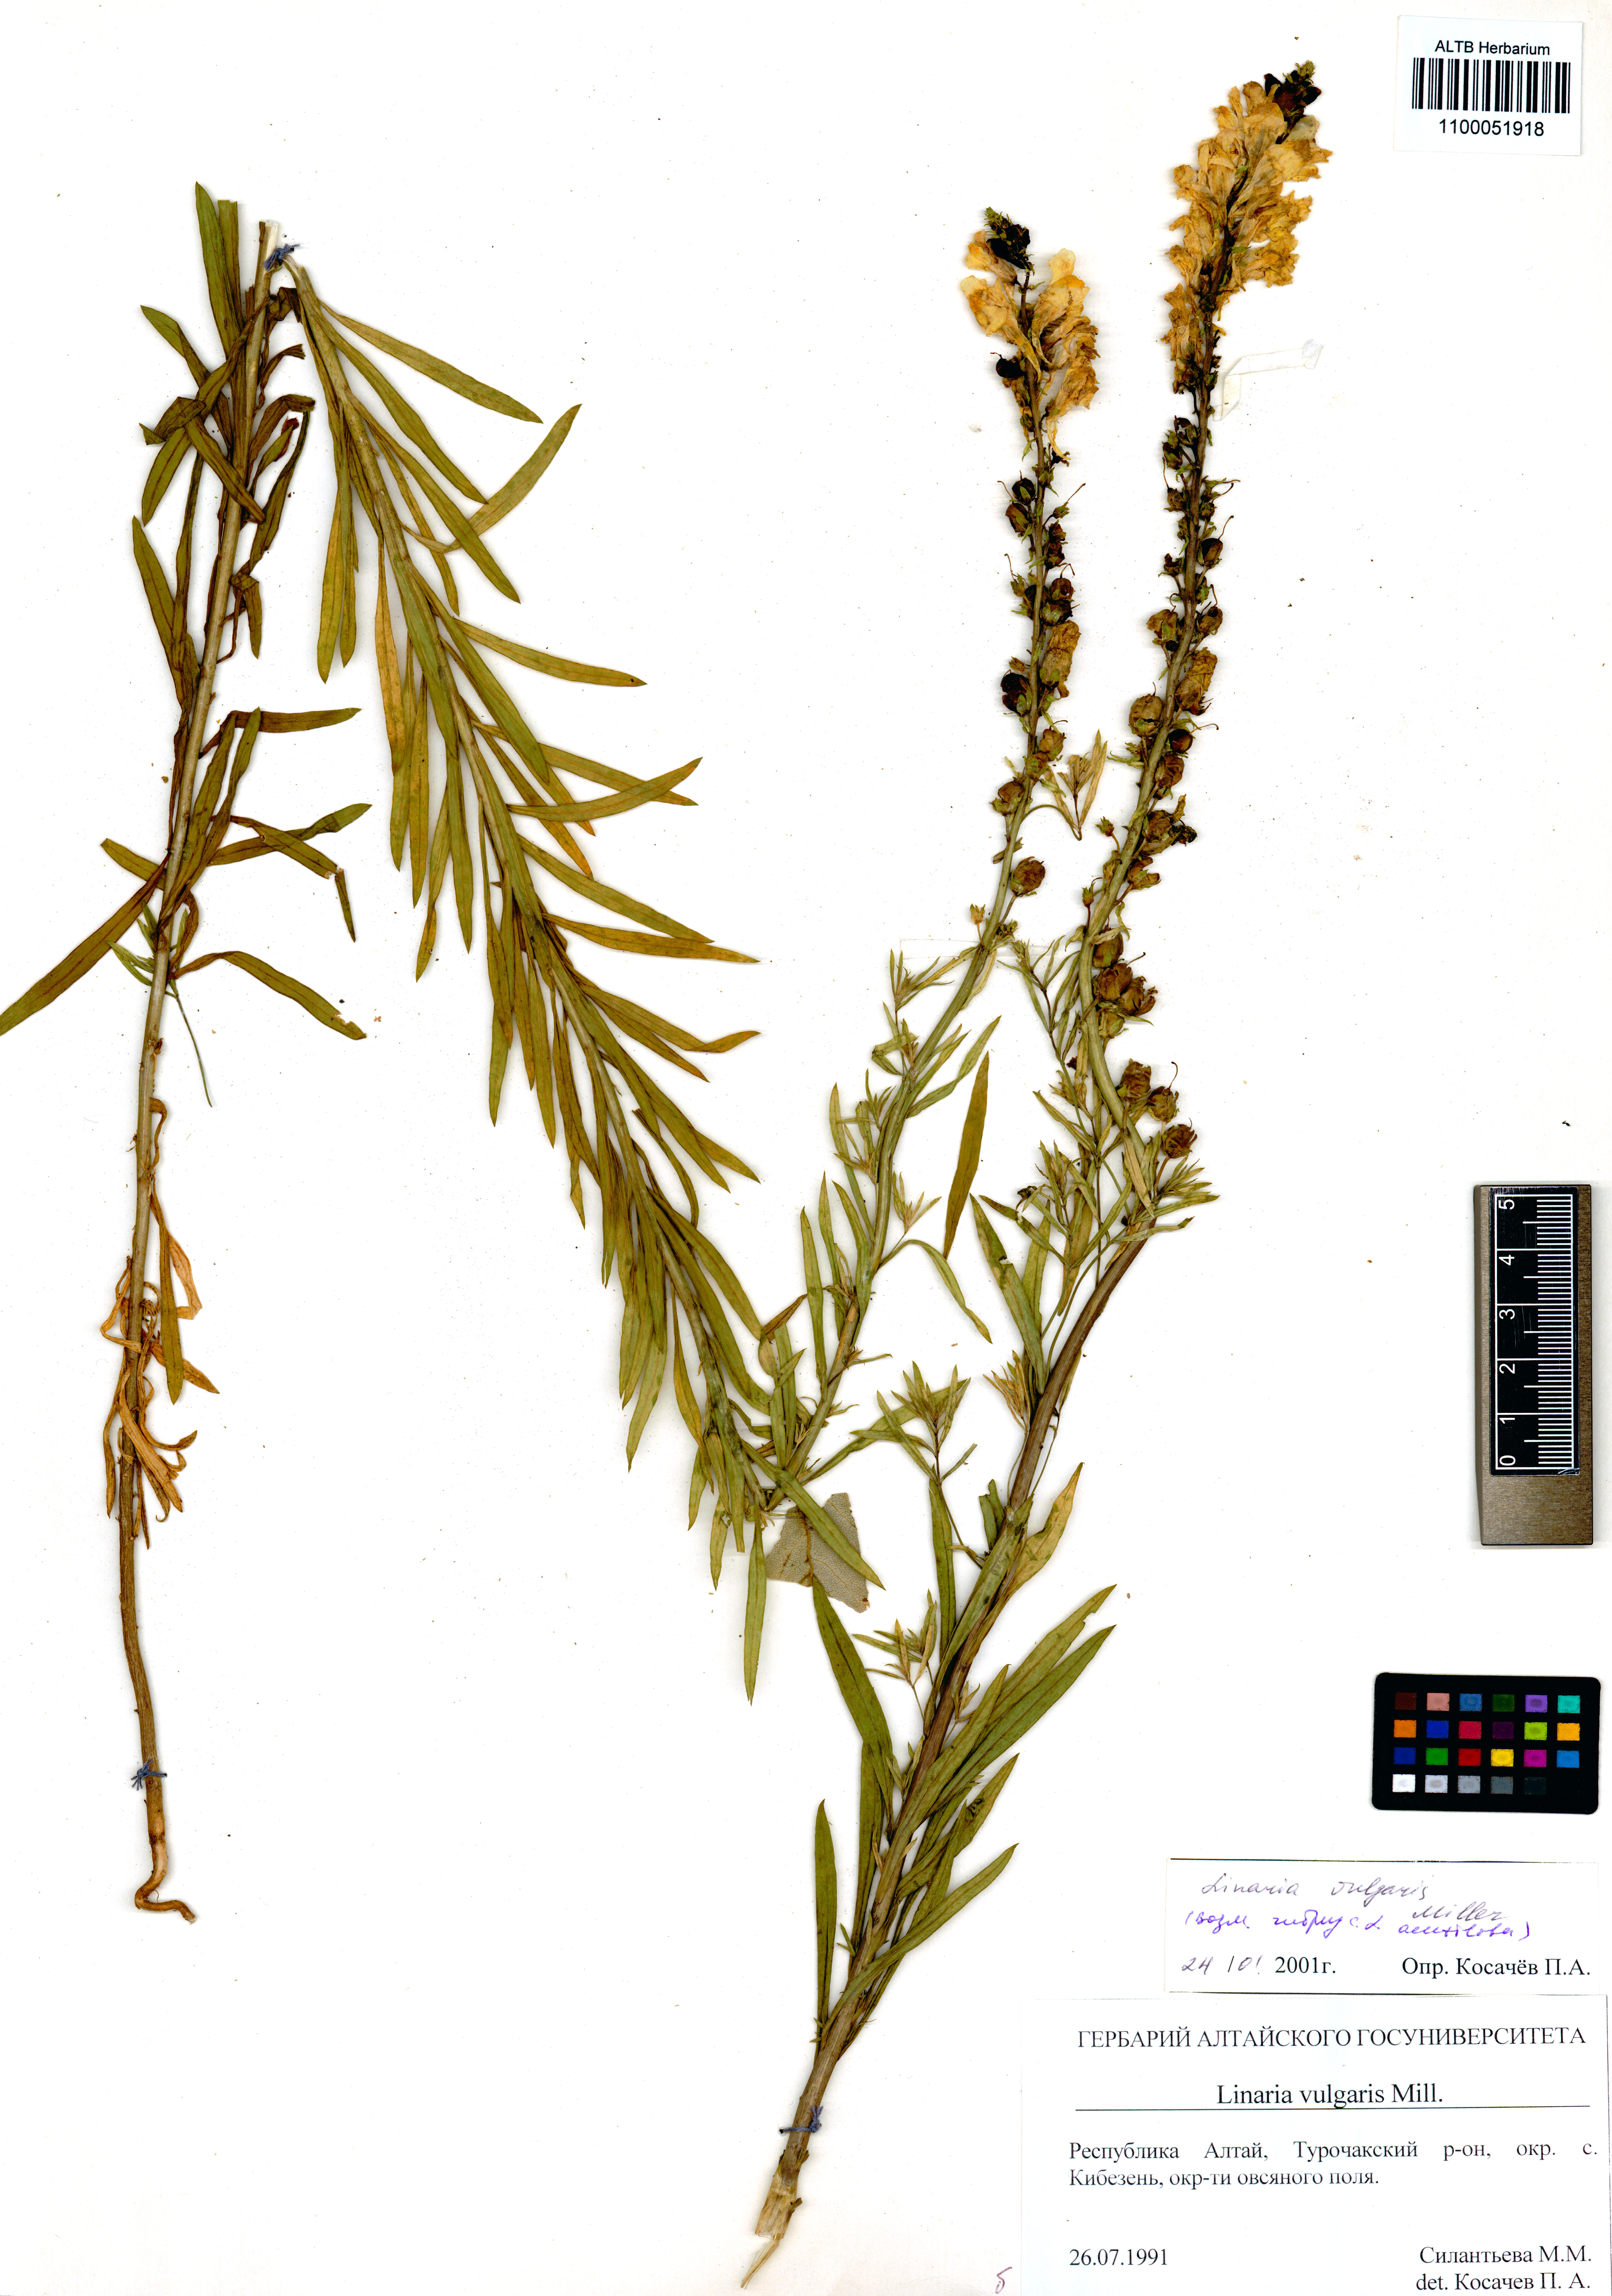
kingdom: Plantae
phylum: Tracheophyta
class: Magnoliopsida
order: Lamiales
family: Plantaginaceae
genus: Linaria
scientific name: Linaria vulgaris
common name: Butter and eggs
